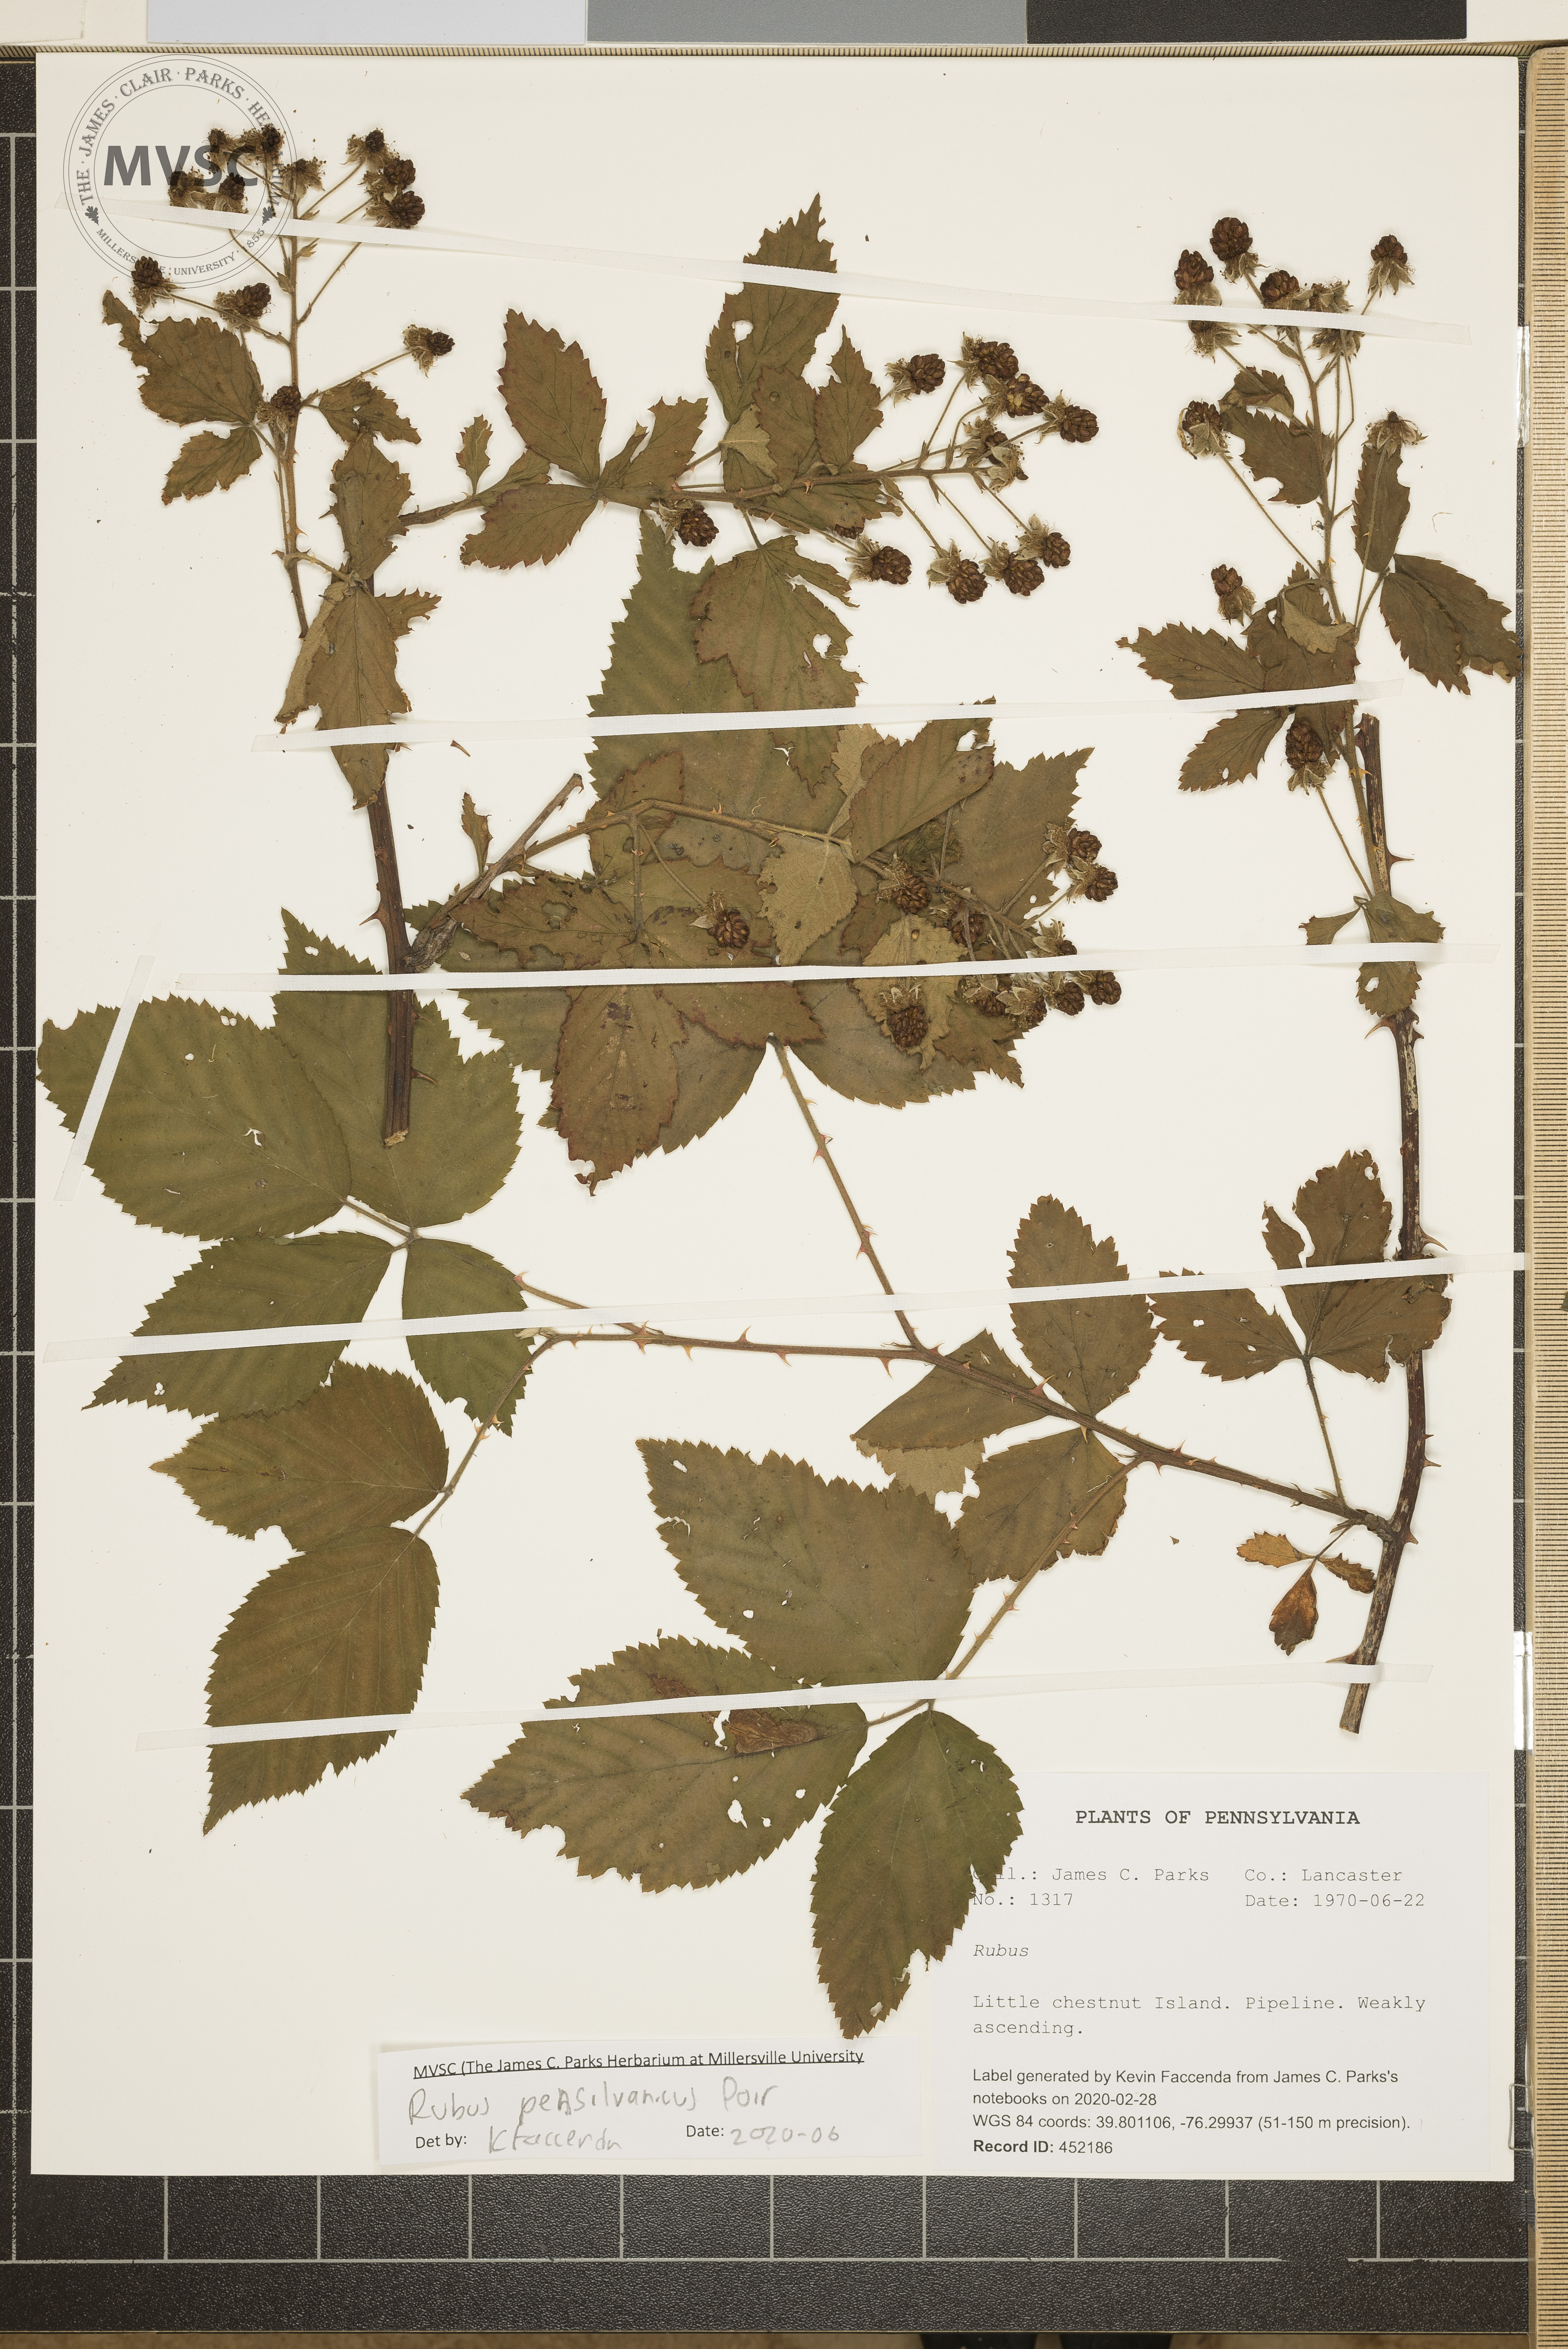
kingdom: Plantae
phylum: Tracheophyta
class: Magnoliopsida
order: Rosales
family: Rosaceae
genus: Rubus
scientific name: Rubus pensilvanicus
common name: Pennsylvania blackberry
